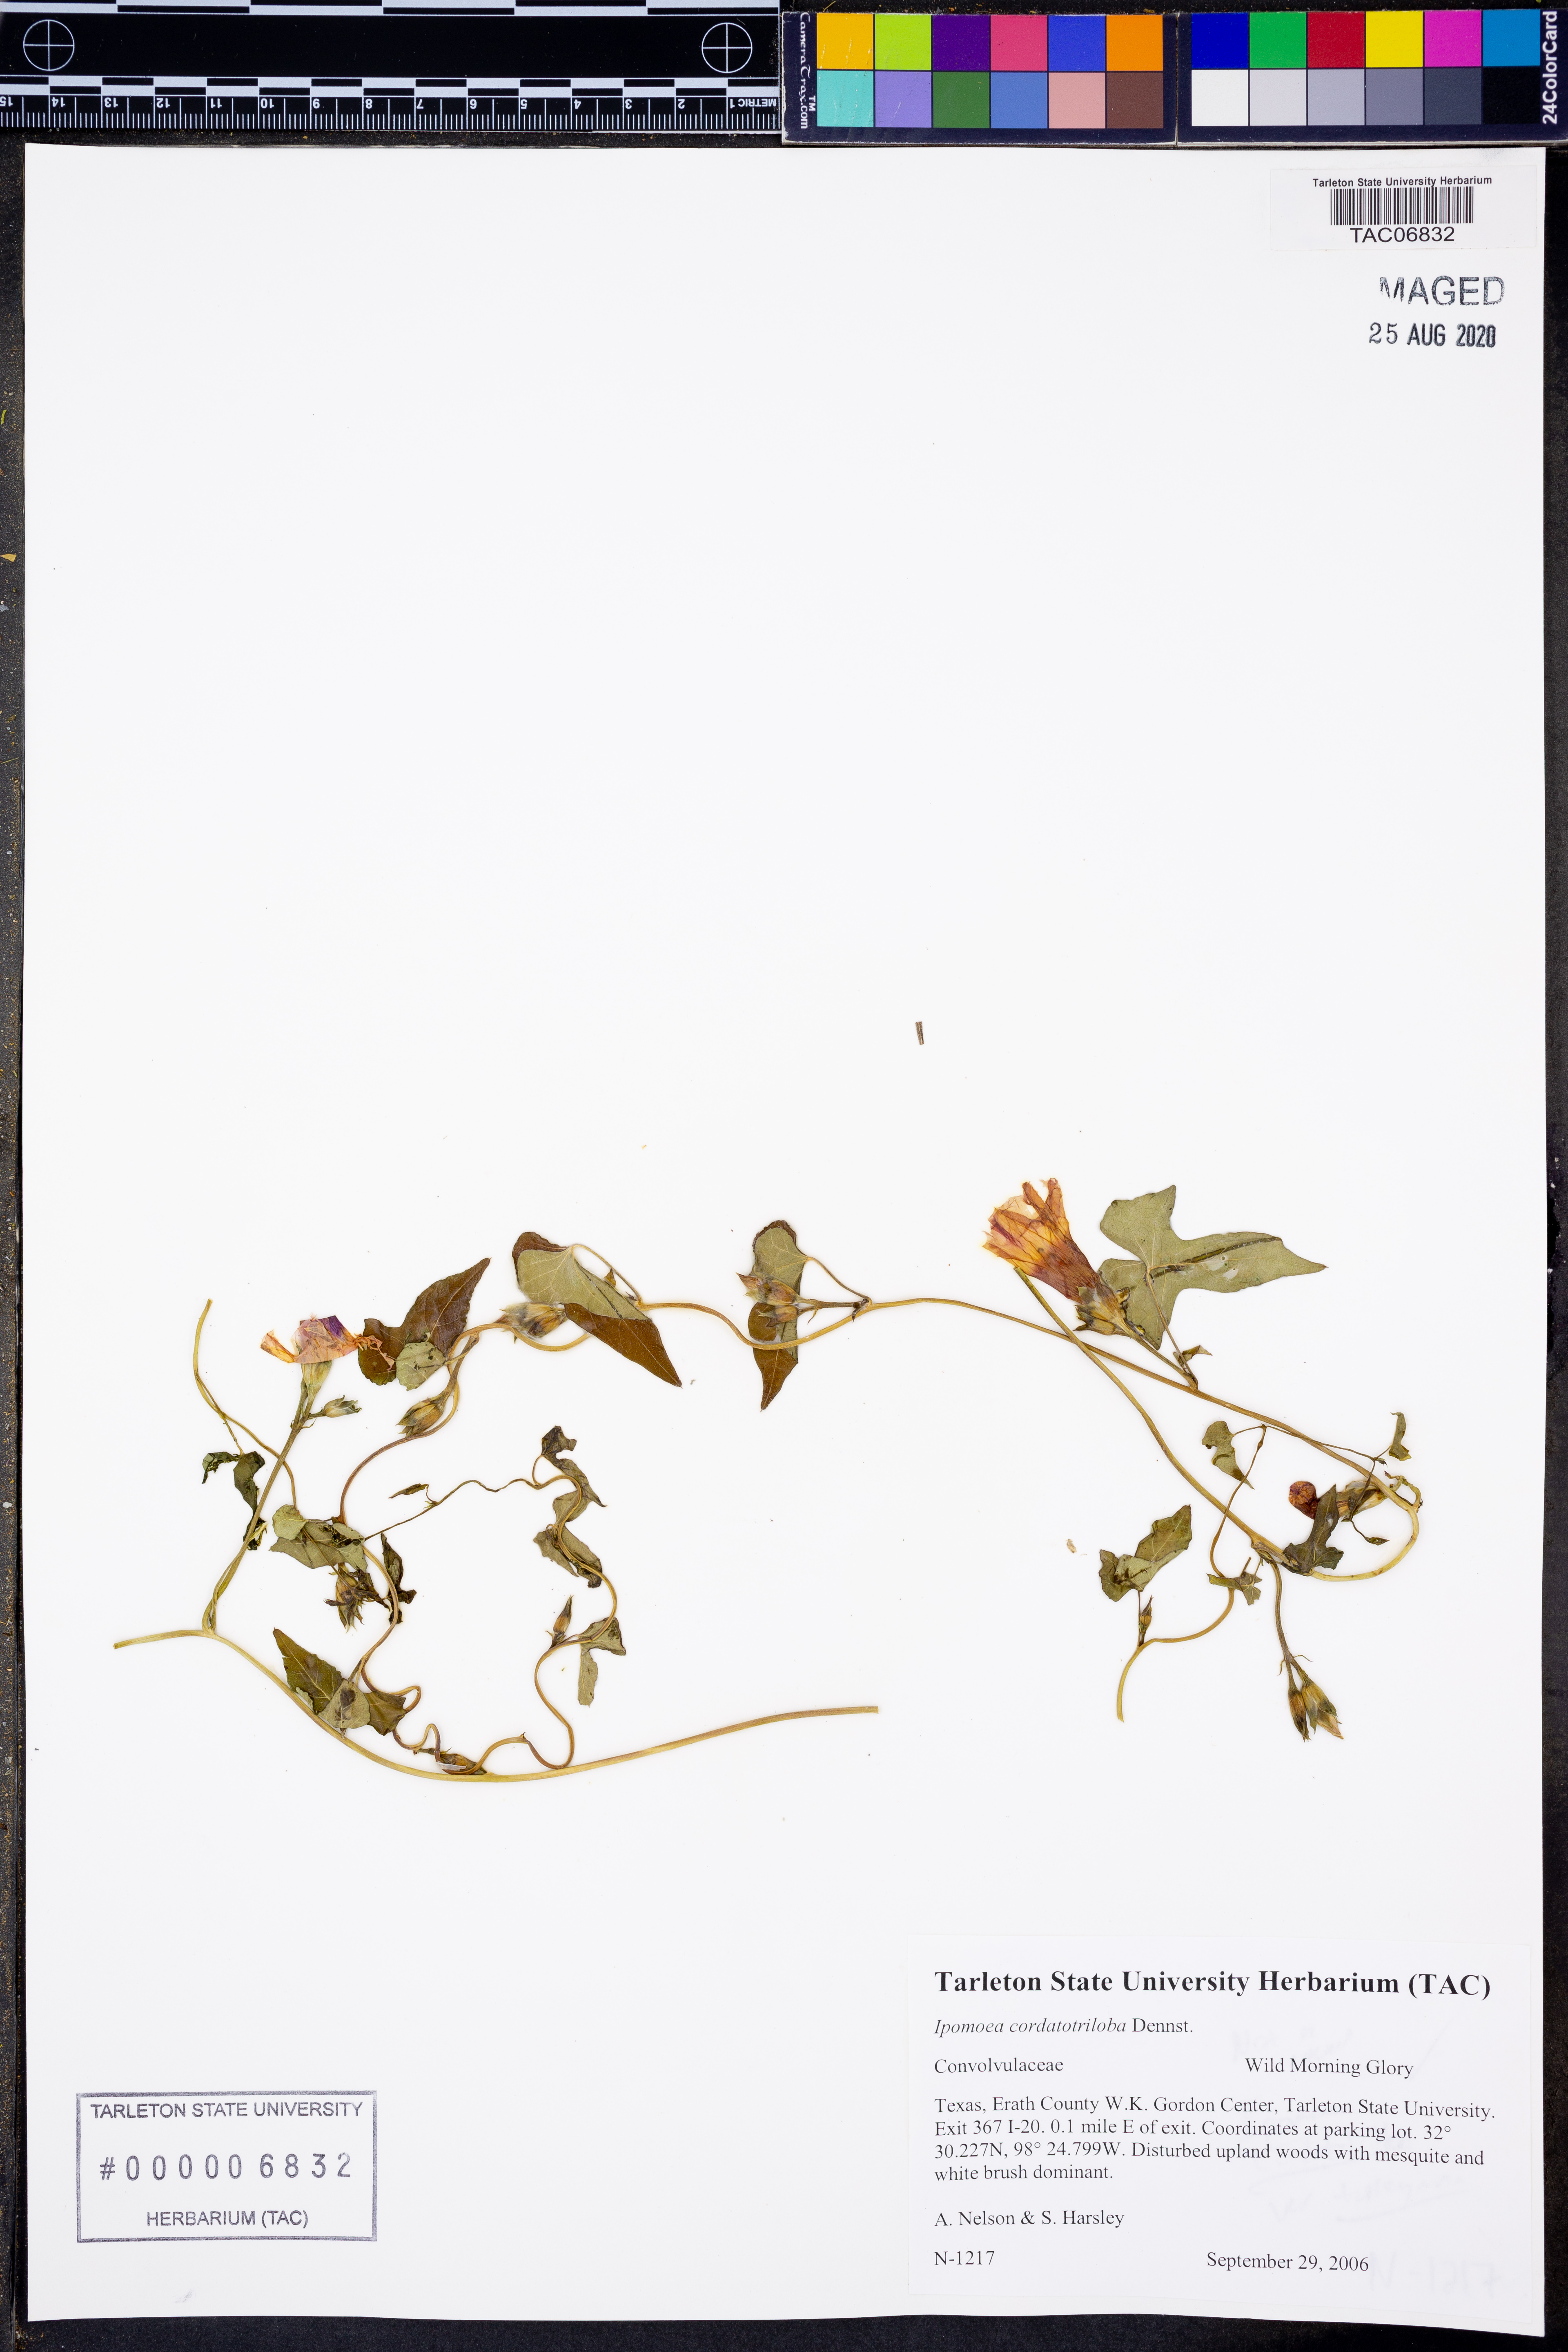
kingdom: Plantae
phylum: Tracheophyta
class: Magnoliopsida
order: Solanales
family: Convolvulaceae
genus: Ipomoea
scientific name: Ipomoea cordatotriloba
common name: Cotton morning glory
